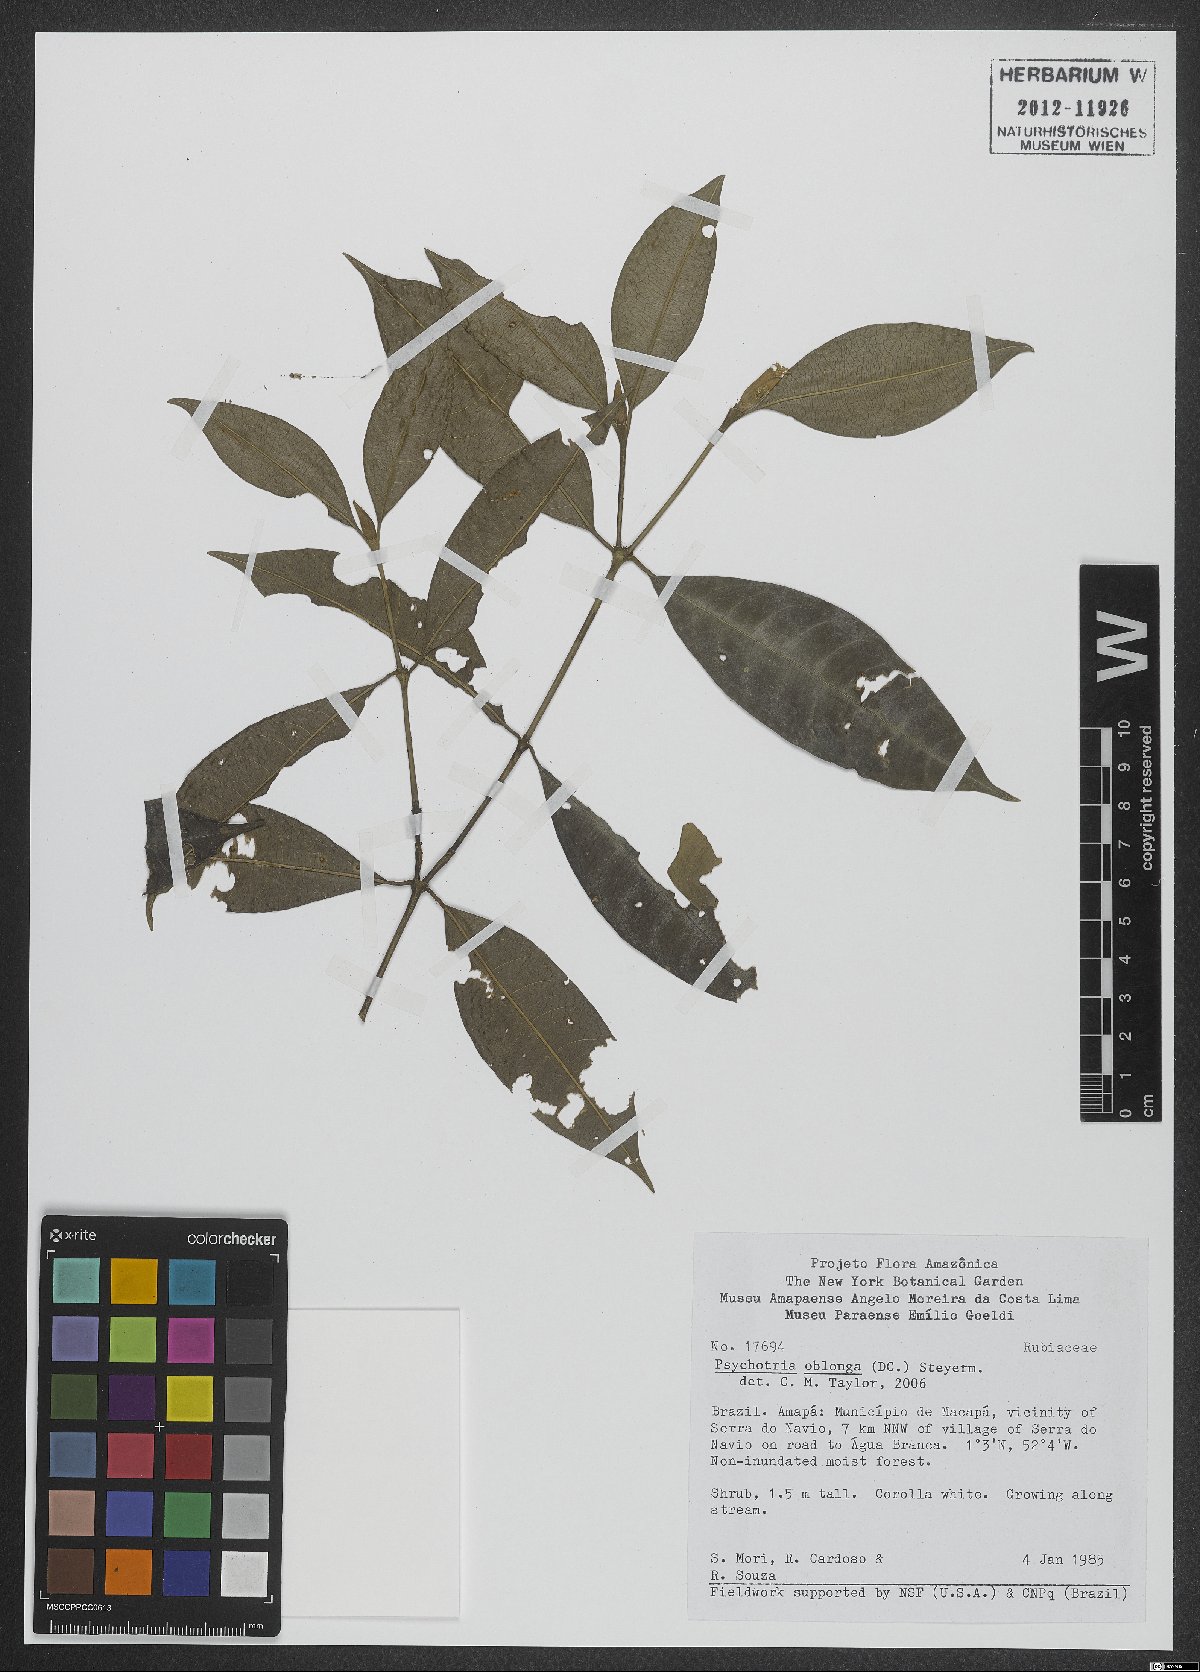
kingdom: Plantae
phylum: Tracheophyta
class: Magnoliopsida
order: Gentianales
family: Rubiaceae
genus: Palicourea
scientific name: Palicourea oblonga
